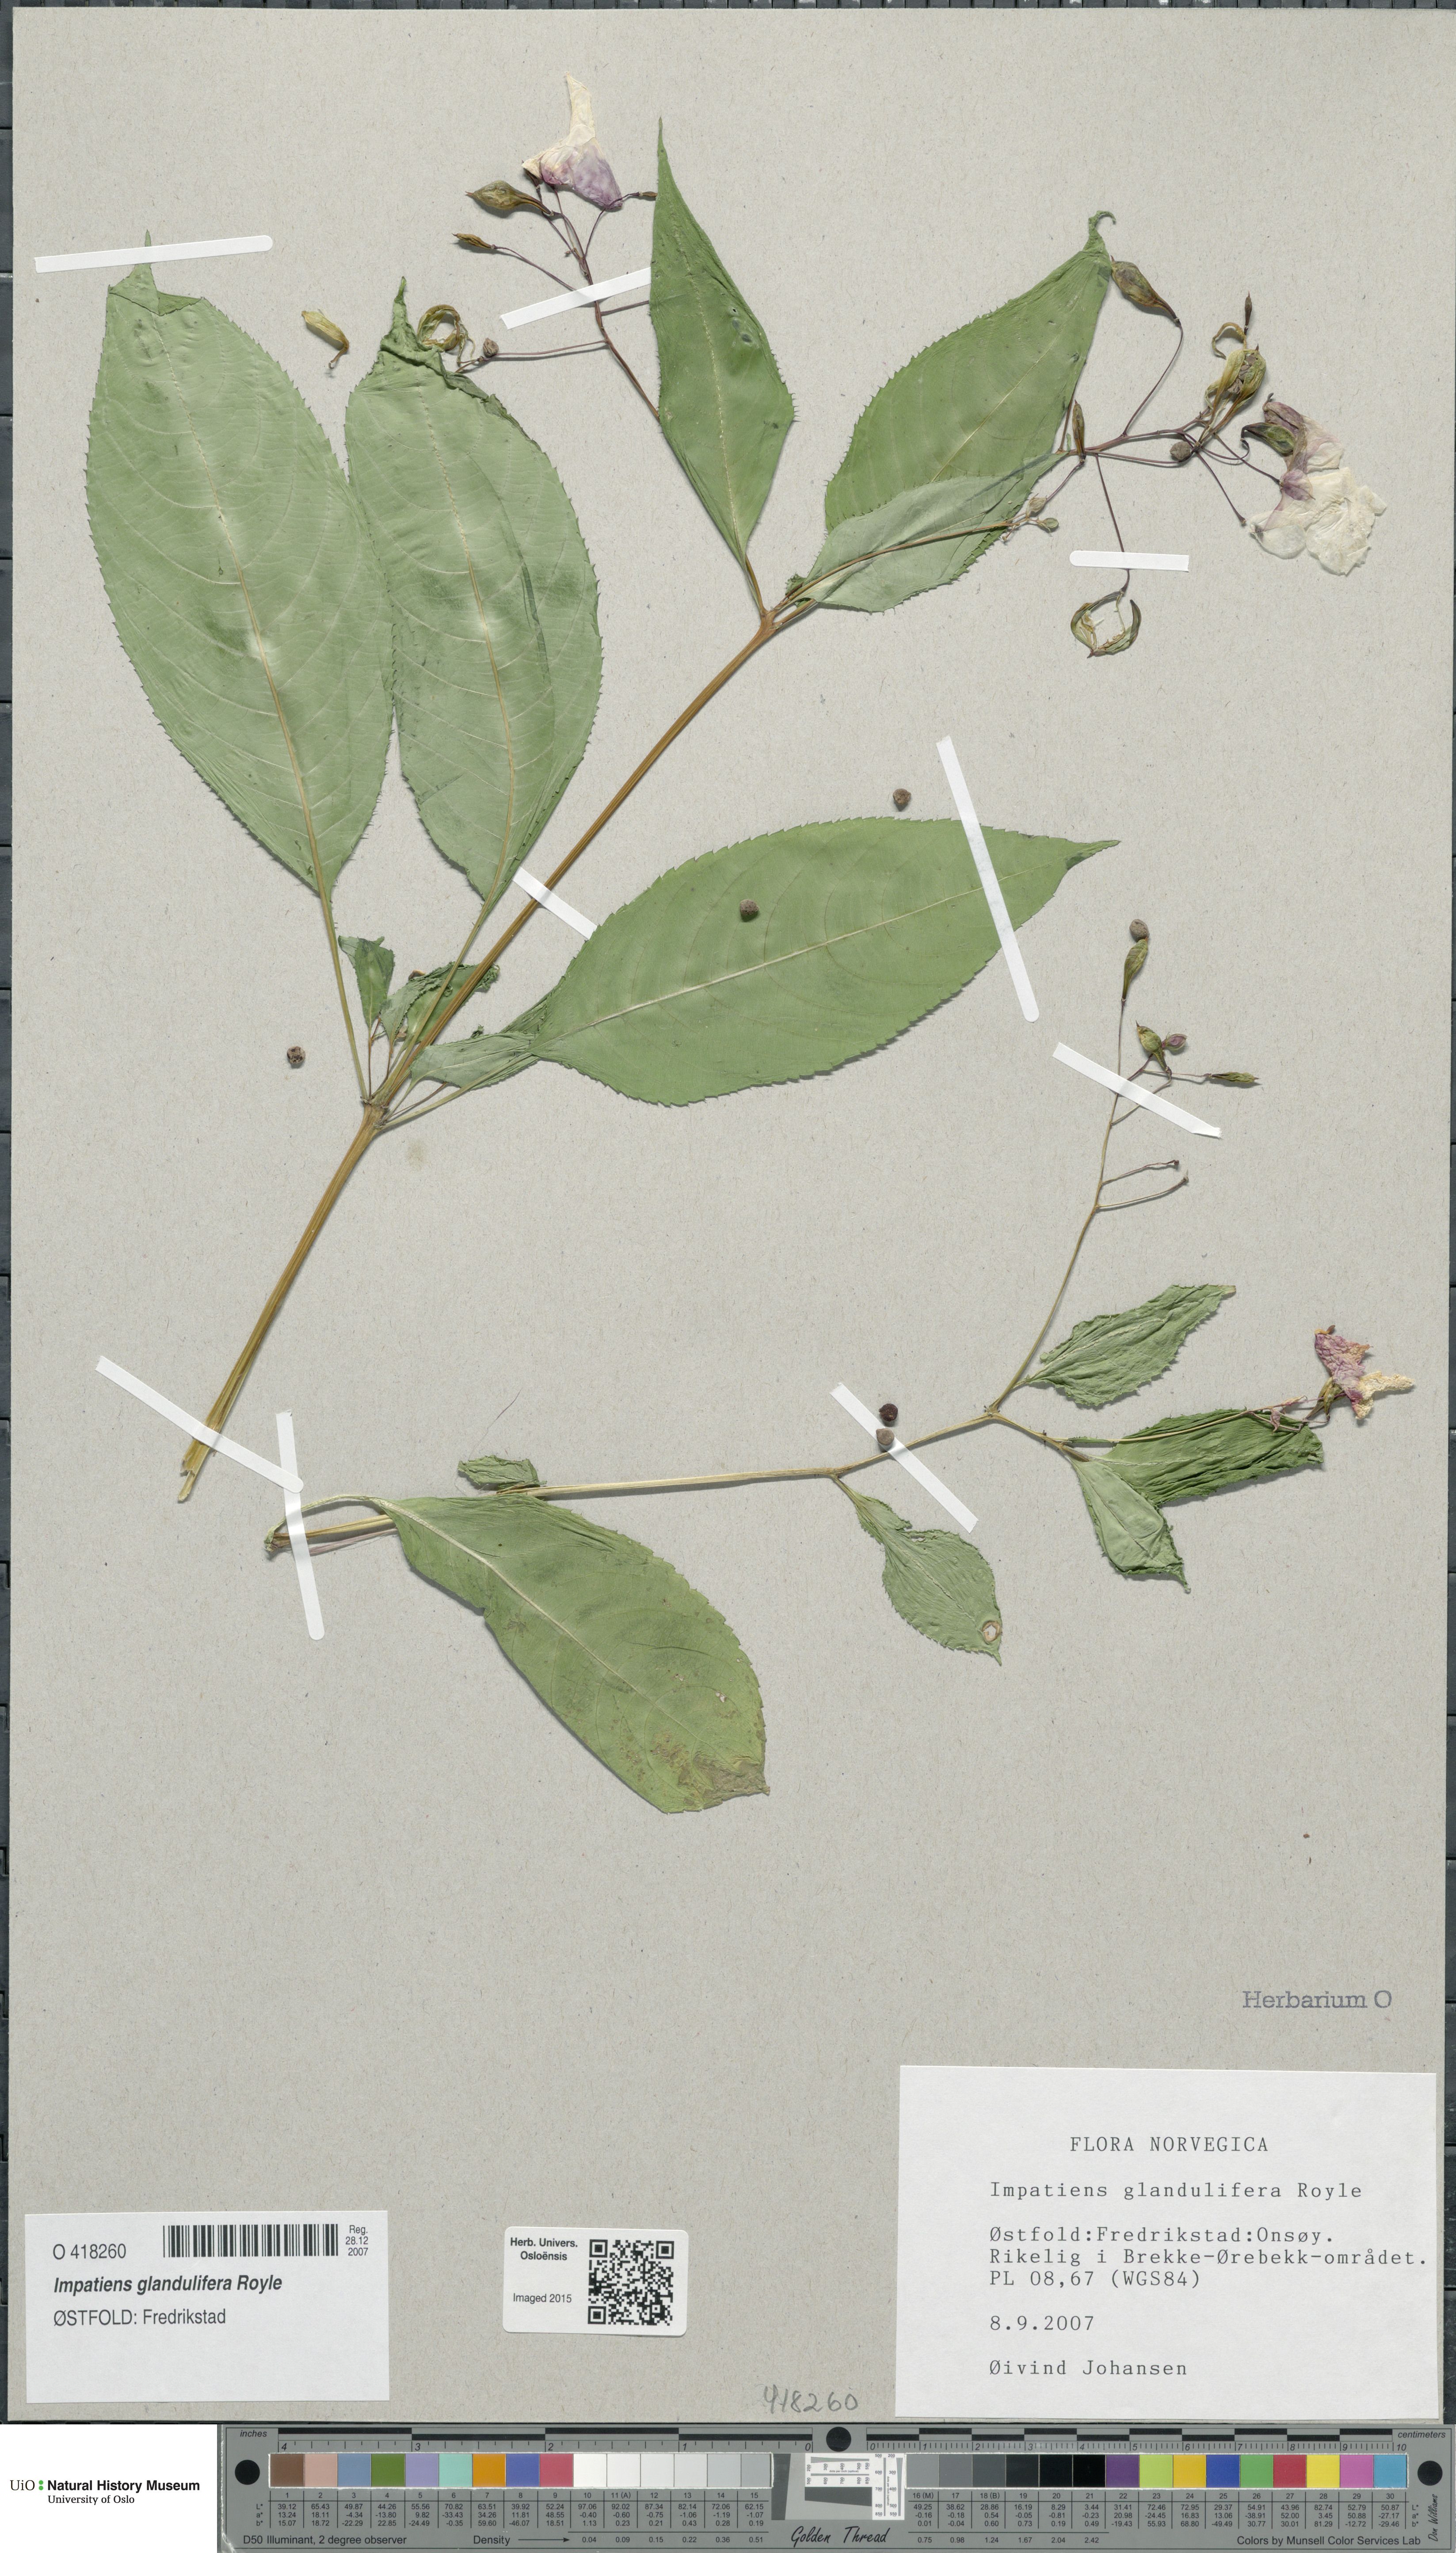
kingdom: Plantae
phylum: Tracheophyta
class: Magnoliopsida
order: Ericales
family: Balsaminaceae
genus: Impatiens
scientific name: Impatiens glandulifera
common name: Himalayan balsam
